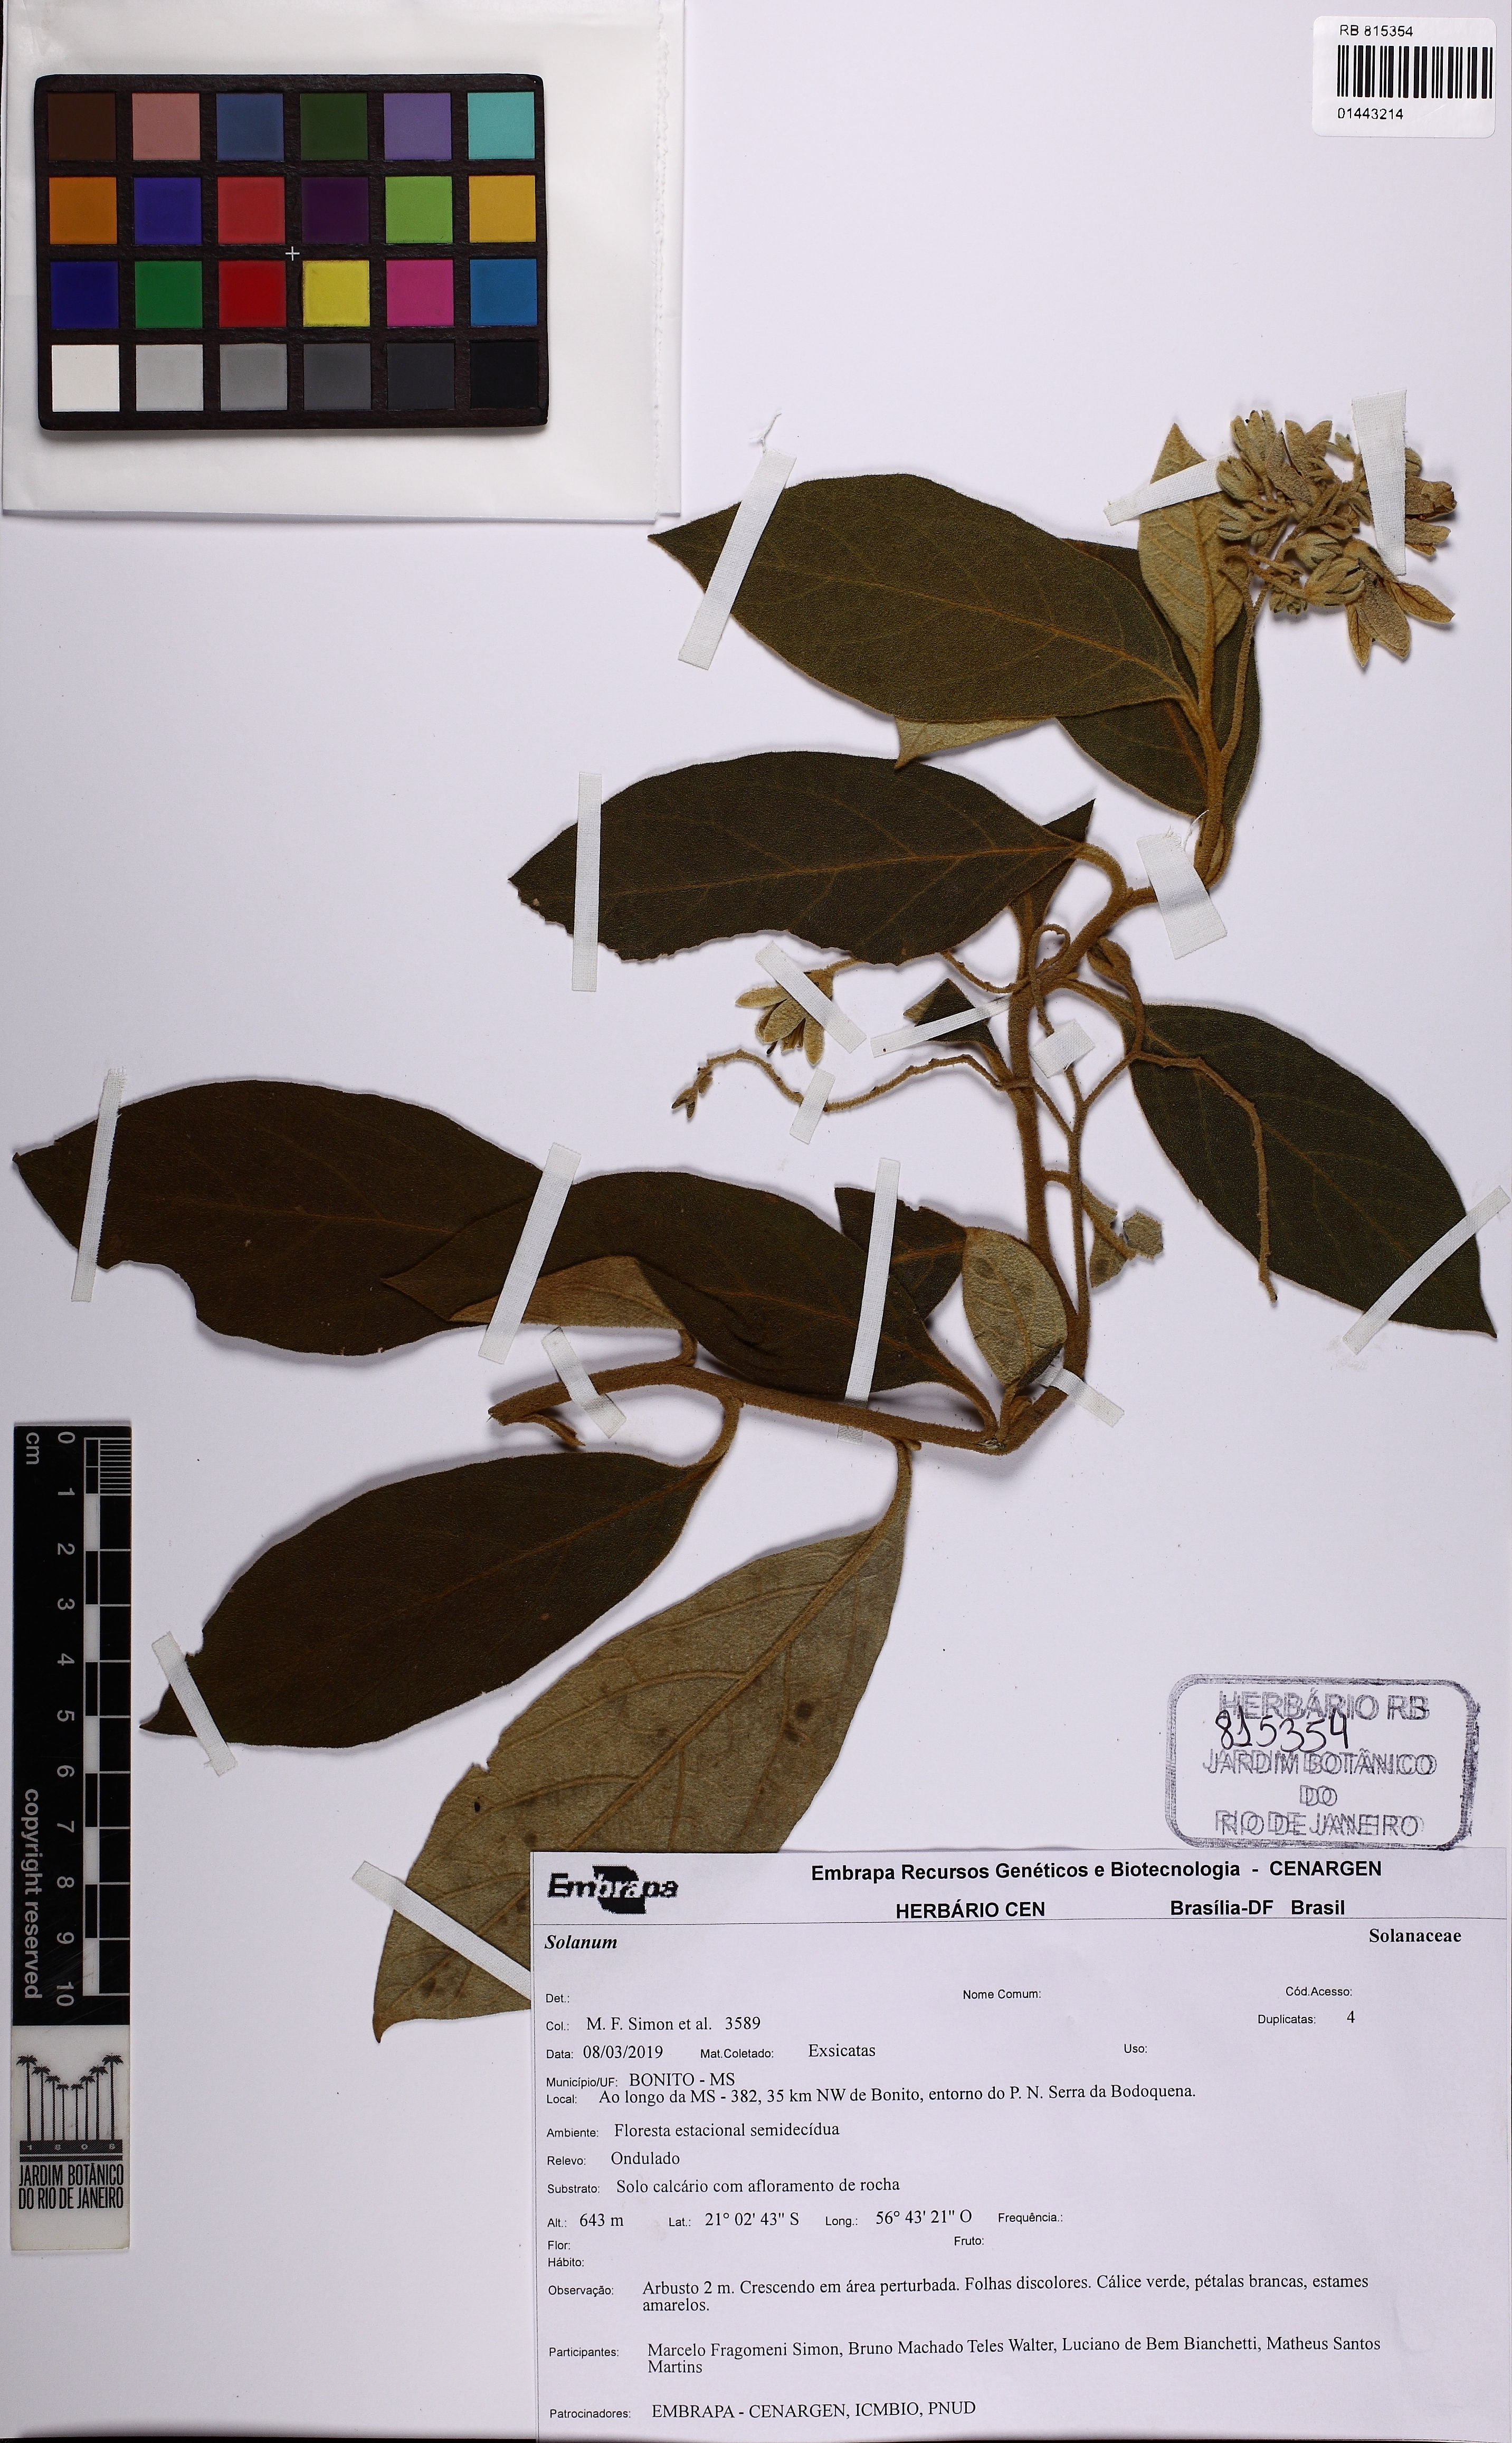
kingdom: Plantae
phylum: Tracheophyta
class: Magnoliopsida
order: Solanales
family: Solanaceae
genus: Solanum
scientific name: Solanum
